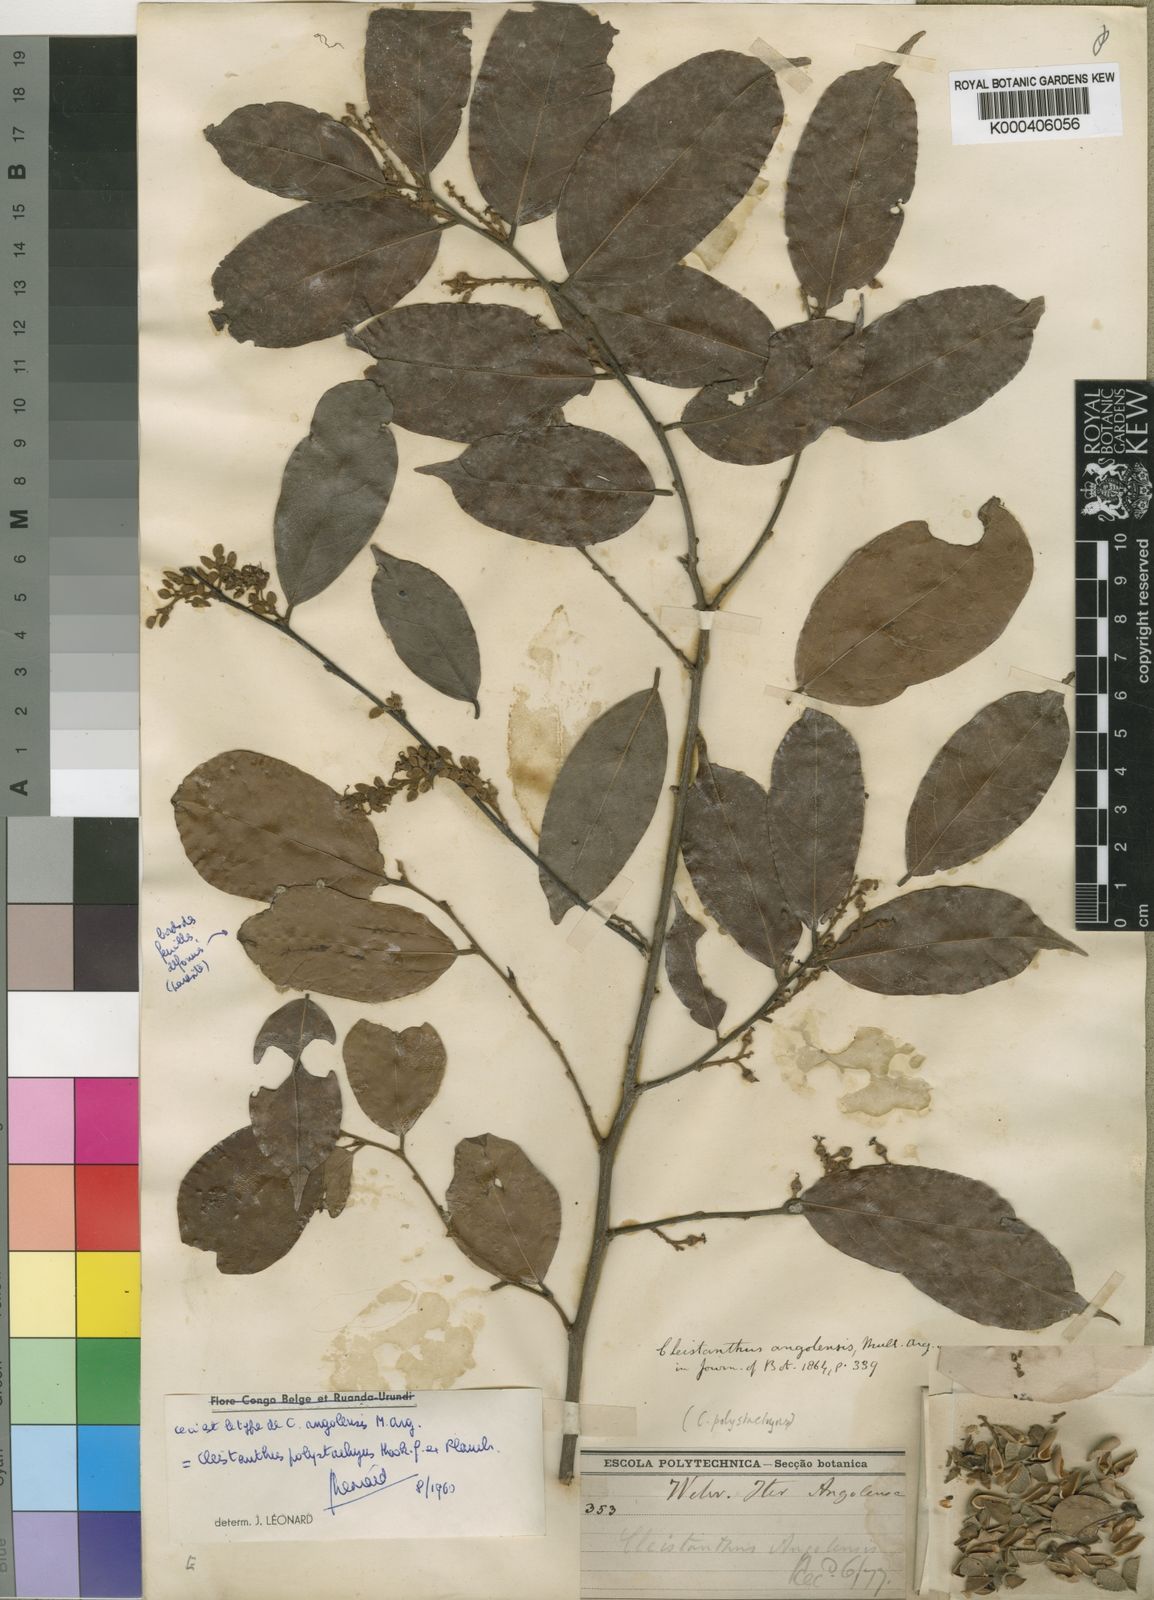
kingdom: Plantae
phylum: Tracheophyta
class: Magnoliopsida
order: Malpighiales
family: Phyllanthaceae
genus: Cleistanthus
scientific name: Cleistanthus polystachyus
